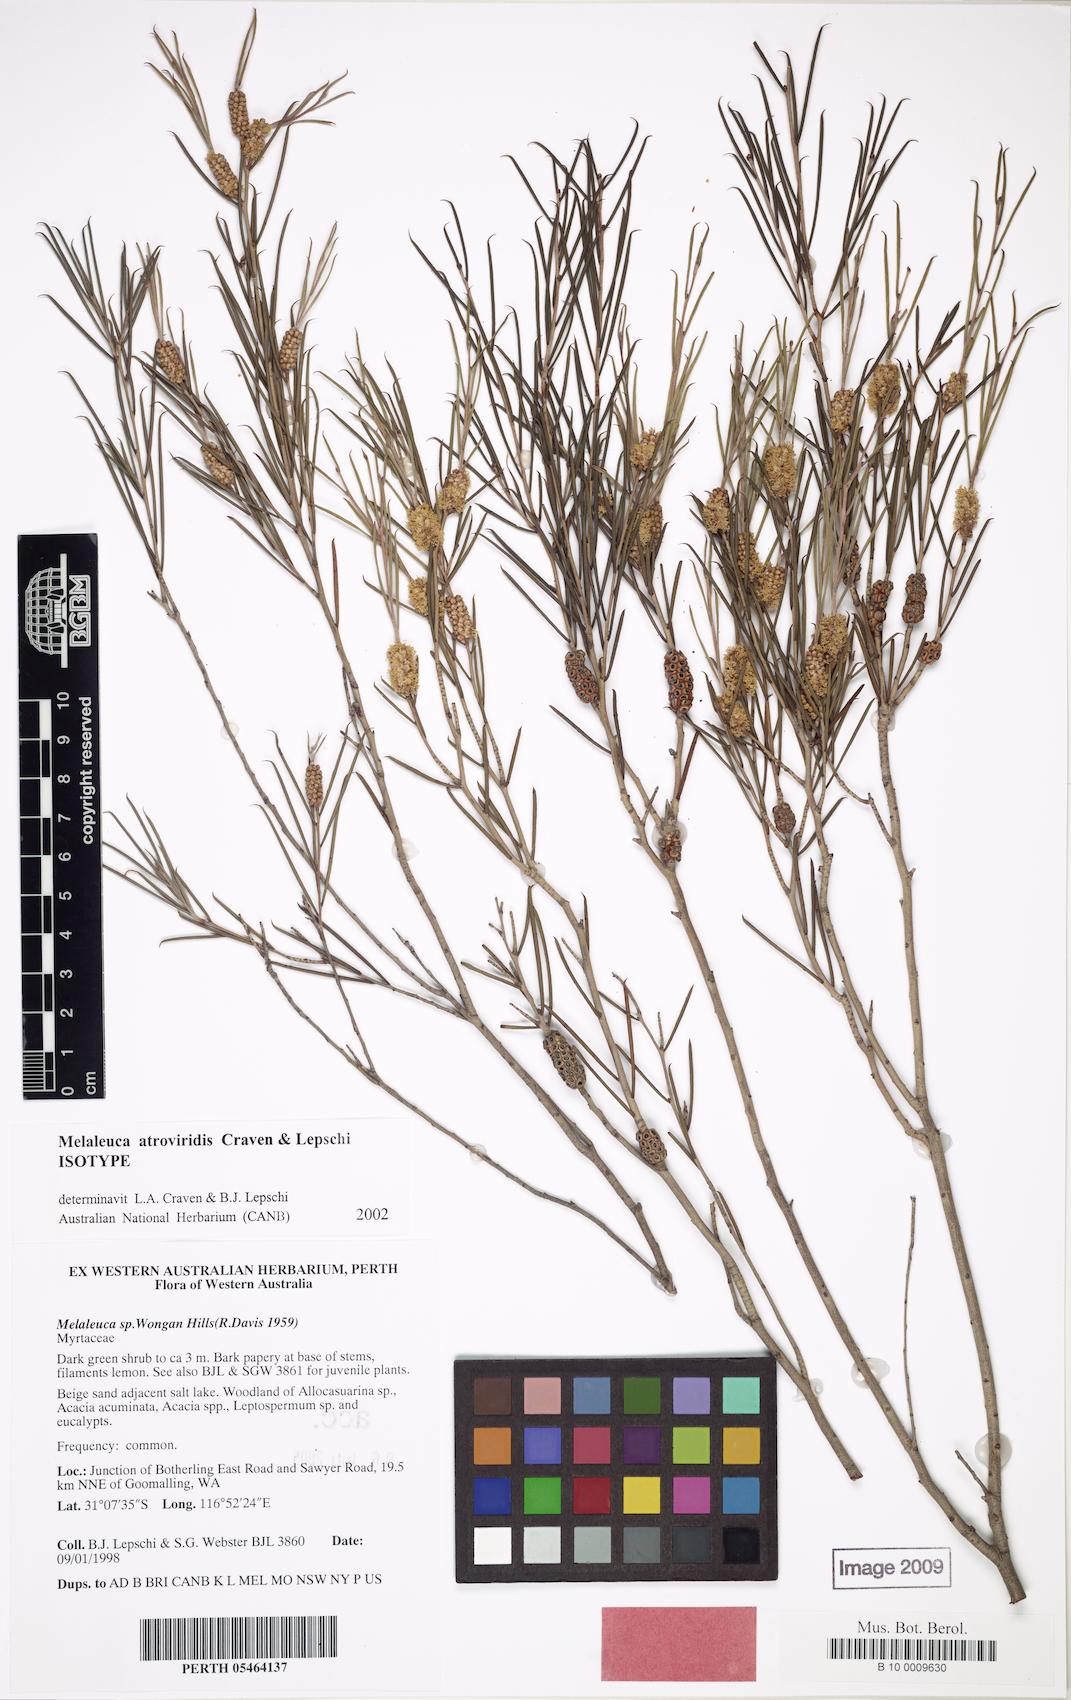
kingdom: Plantae
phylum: Tracheophyta
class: Magnoliopsida
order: Myrtales
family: Myrtaceae
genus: Melaleuca
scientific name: Melaleuca atroviridis
